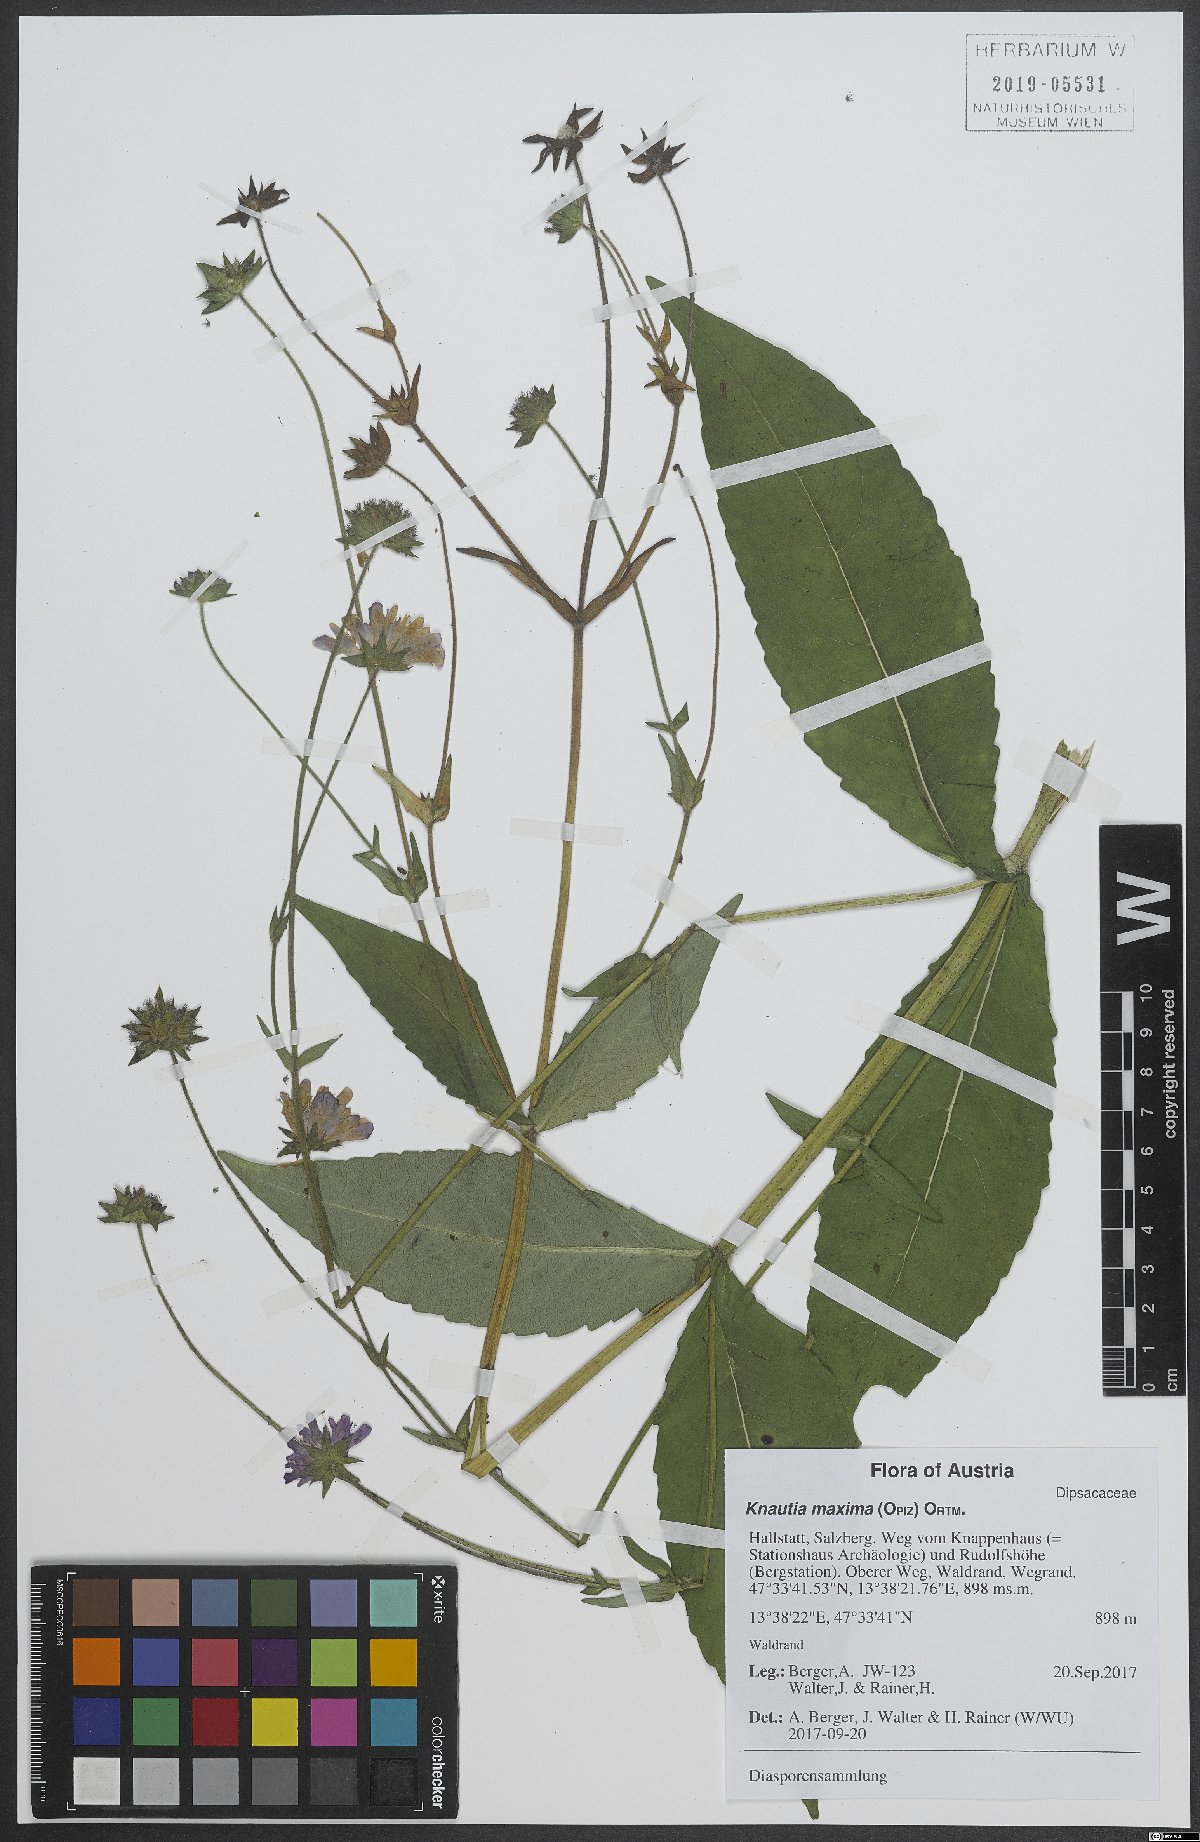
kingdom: Plantae
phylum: Tracheophyta
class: Magnoliopsida
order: Dipsacales
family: Caprifoliaceae
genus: Knautia
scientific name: Knautia dipsacifolia
